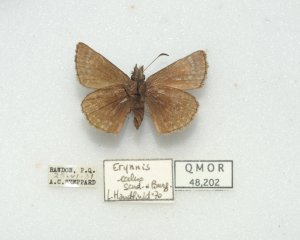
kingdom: Animalia
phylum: Arthropoda
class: Insecta
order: Lepidoptera
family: Hesperiidae
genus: Erynnis
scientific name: Erynnis icelus
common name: Dreamy Duskywing
